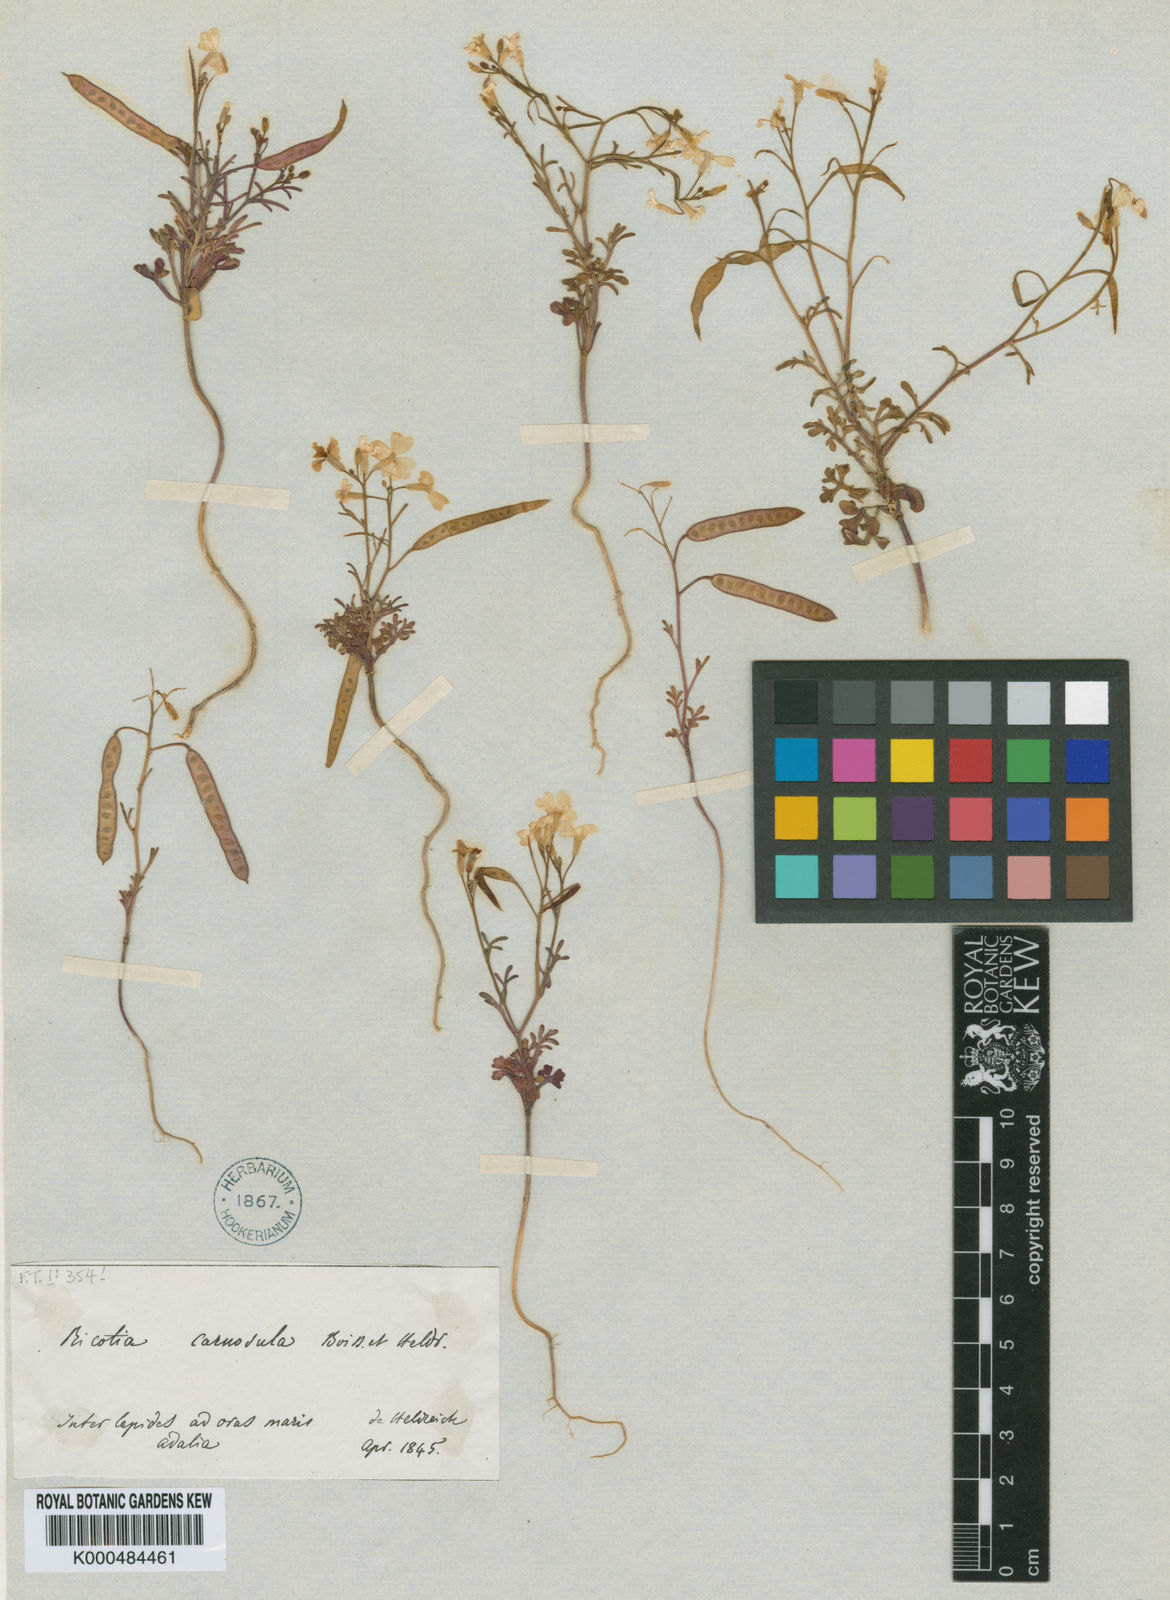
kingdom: Plantae
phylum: Tracheophyta
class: Magnoliopsida
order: Brassicales
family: Brassicaceae
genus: Ricotia
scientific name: Ricotia carnosula
